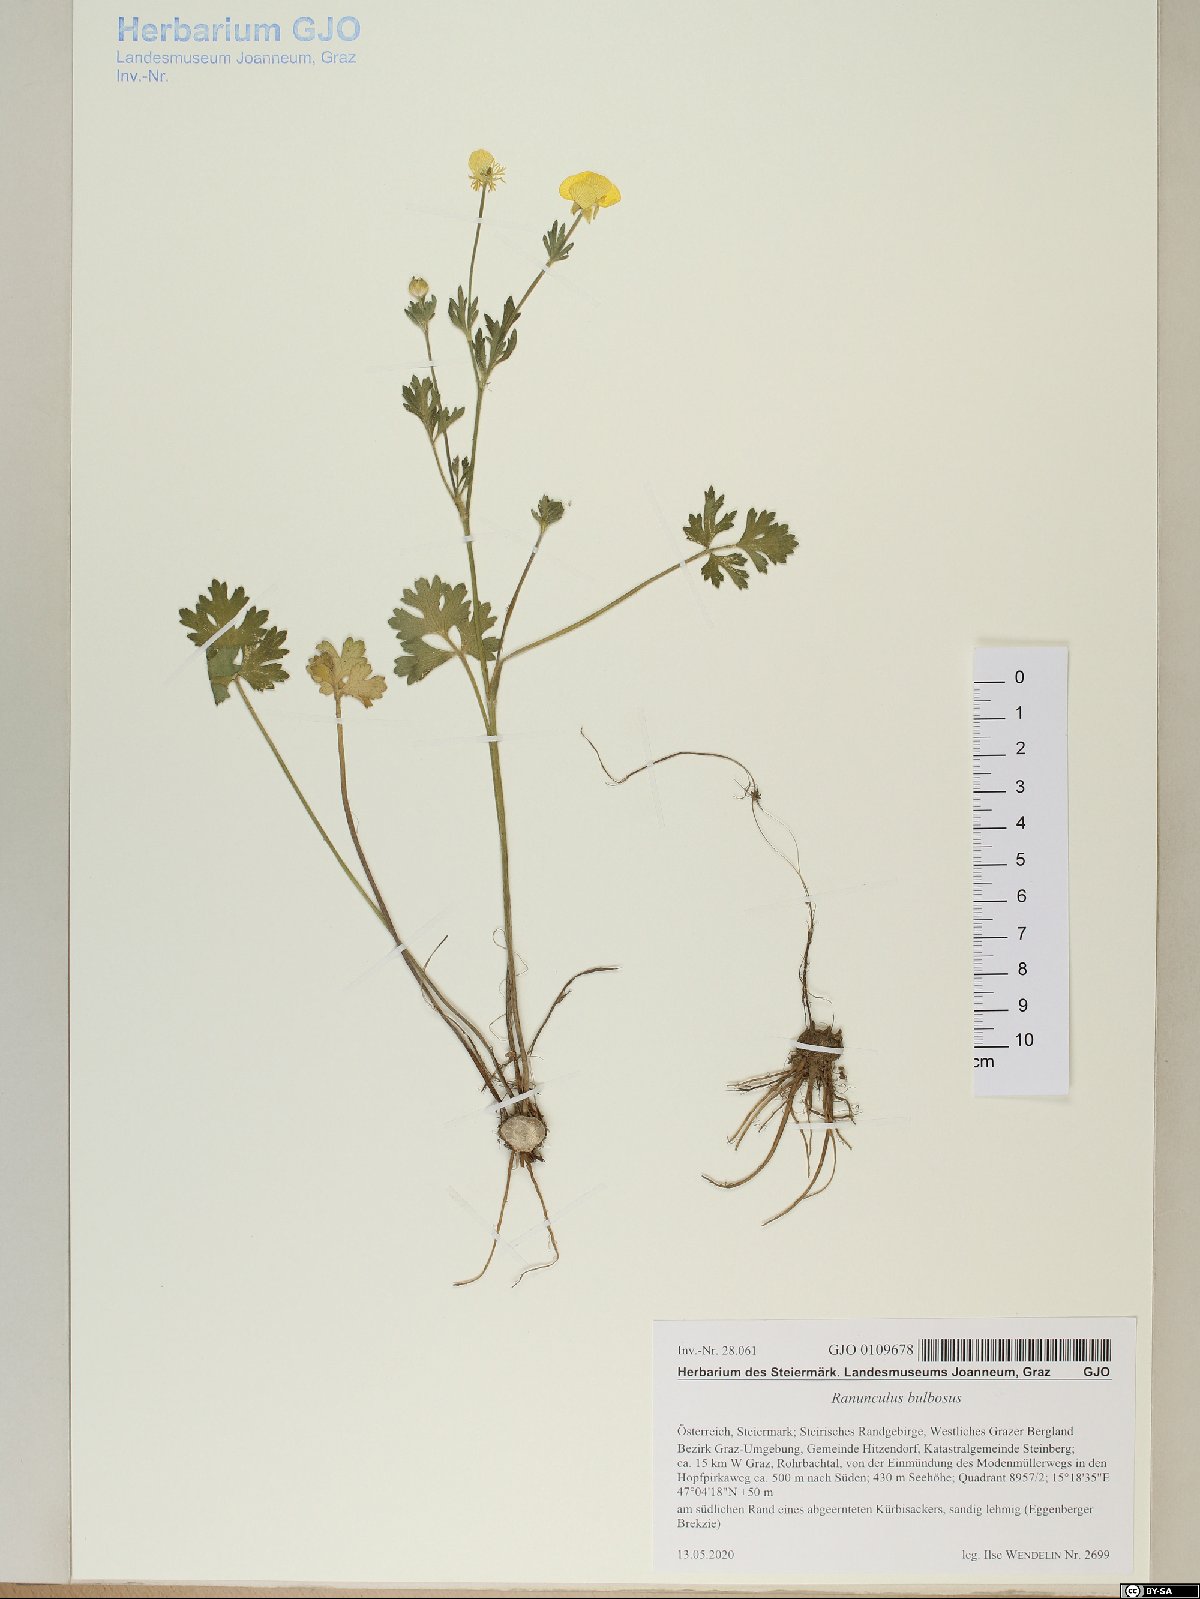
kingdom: Plantae
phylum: Tracheophyta
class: Magnoliopsida
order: Ranunculales
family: Ranunculaceae
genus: Ranunculus
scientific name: Ranunculus bulbosus
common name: Bulbous buttercup
